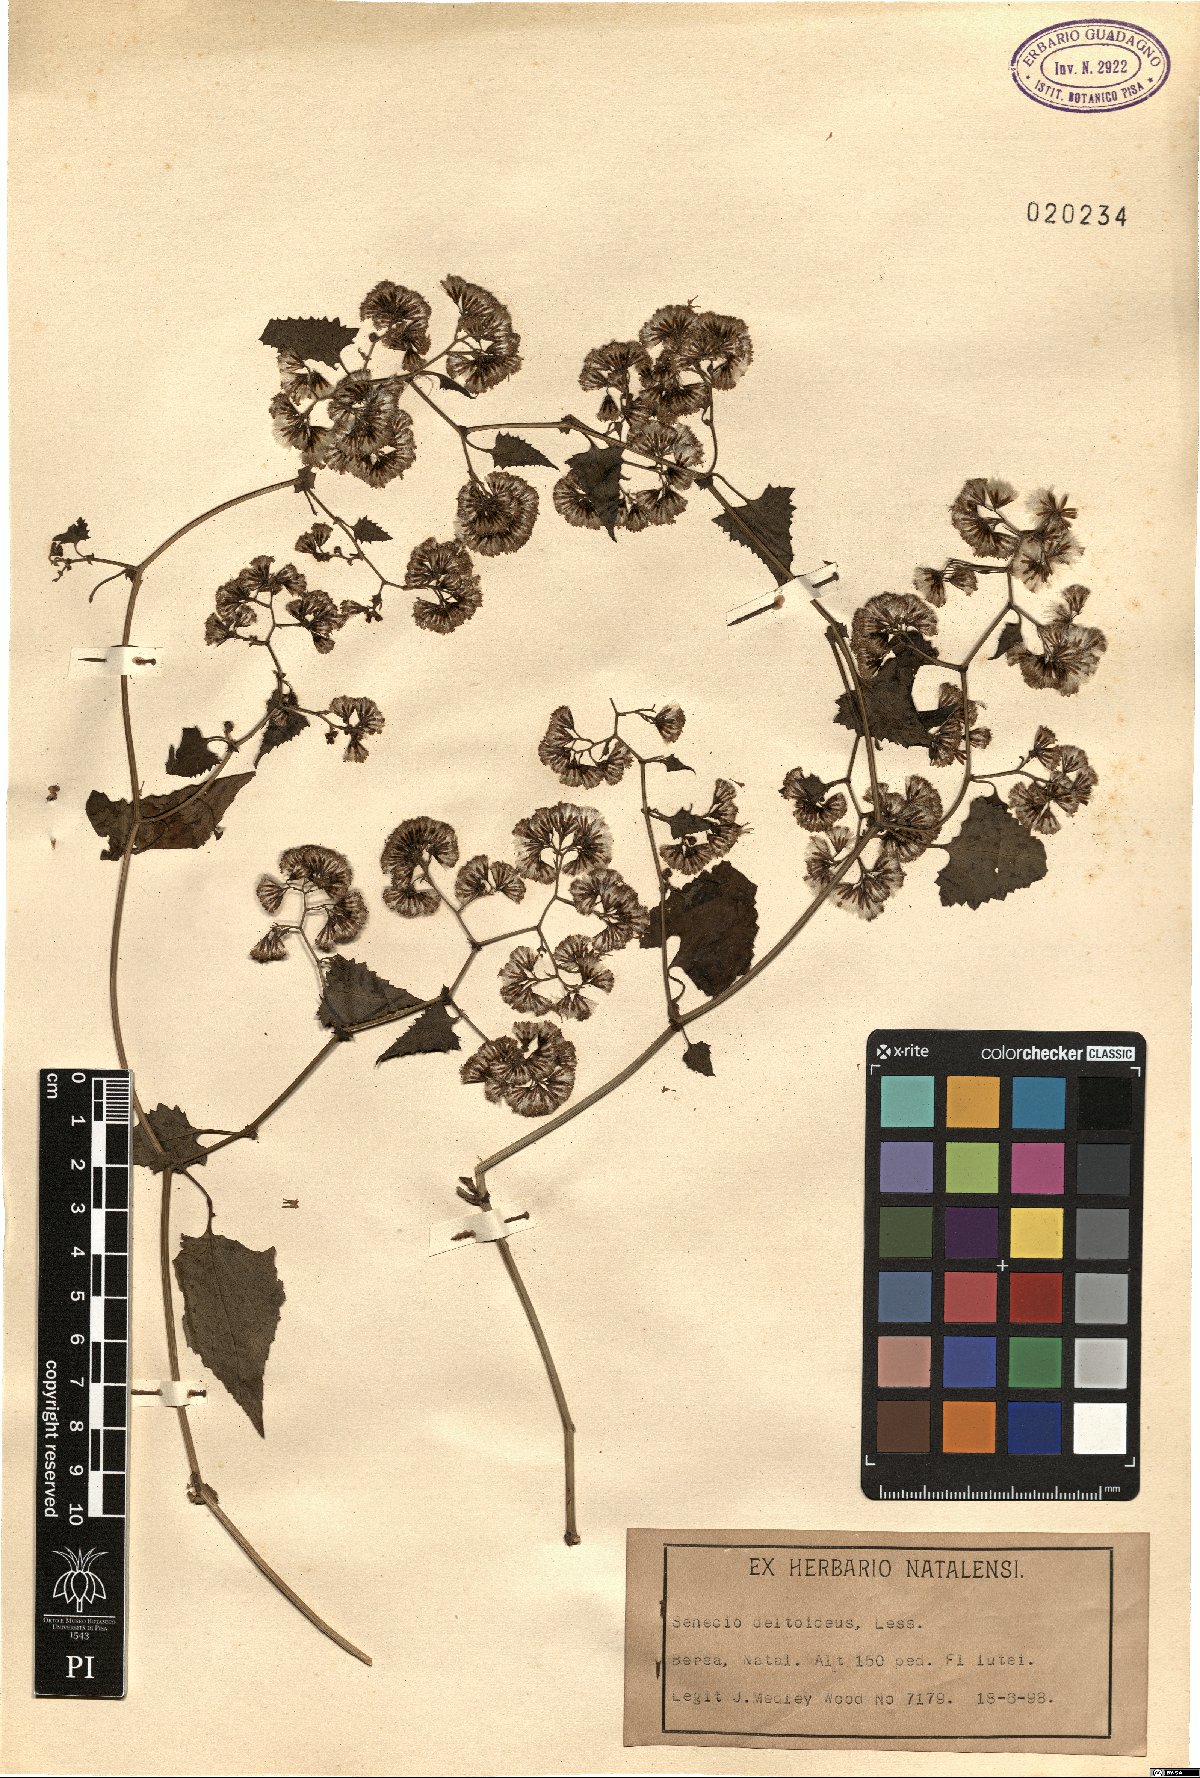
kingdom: Plantae
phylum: Tracheophyta
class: Magnoliopsida
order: Asterales
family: Asteraceae
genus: Senecio
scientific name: Senecio deltoideus
